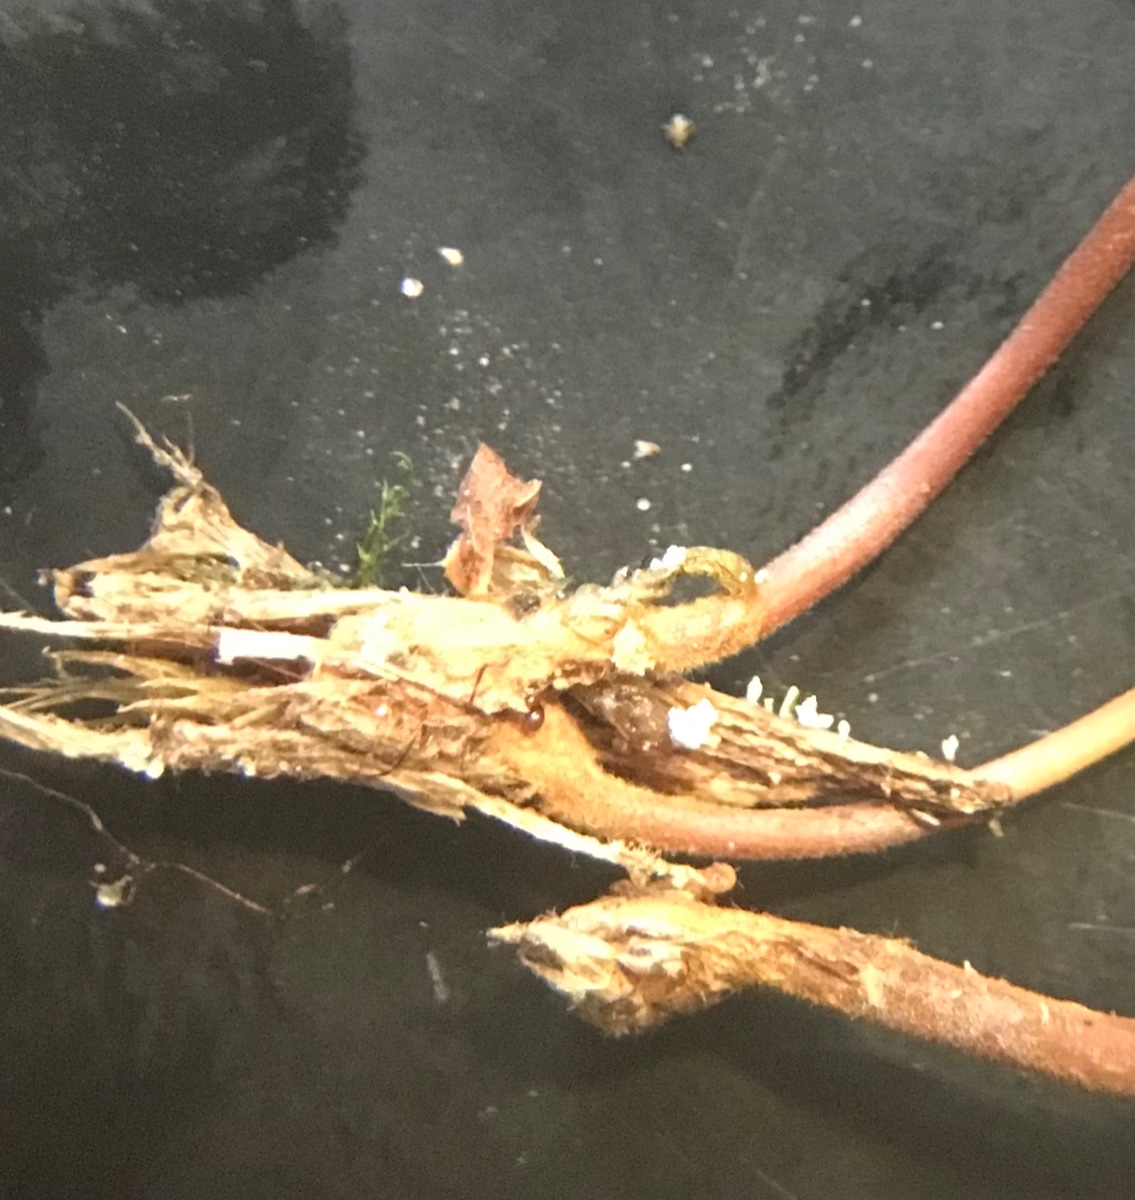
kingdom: Fungi
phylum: Basidiomycota
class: Agaricomycetes
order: Agaricales
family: Mycenaceae
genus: Xeromphalina
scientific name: Xeromphalina
